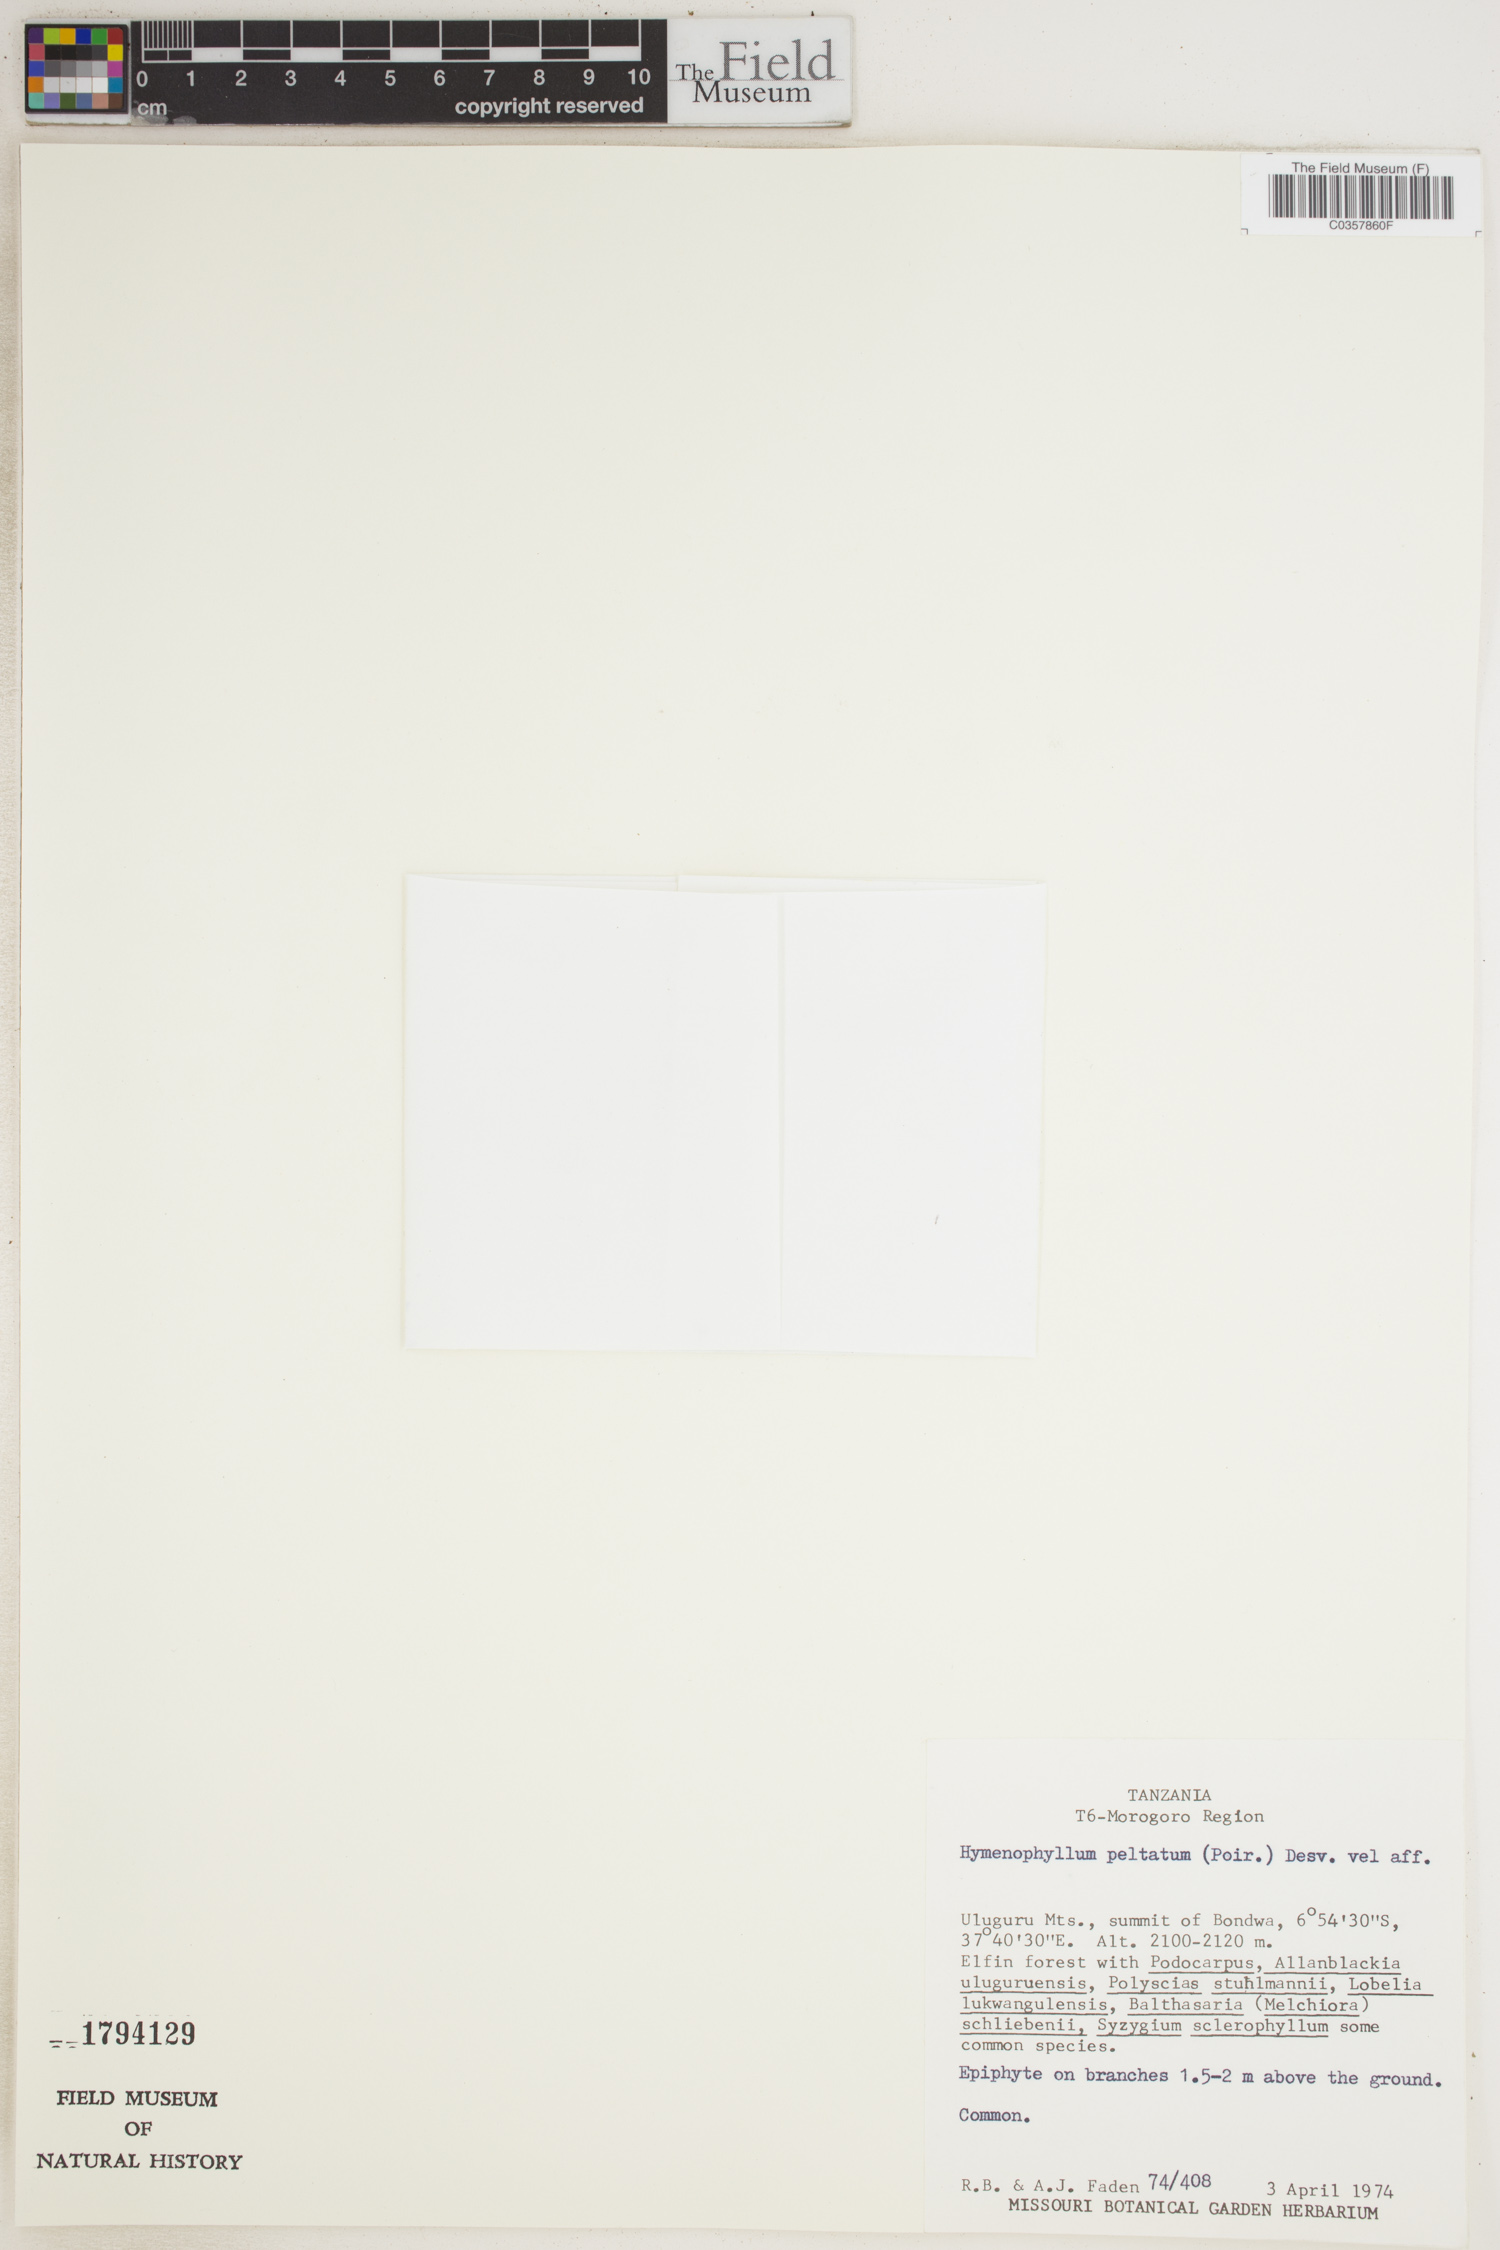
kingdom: Plantae
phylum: Tracheophyta
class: Polypodiopsida
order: Hymenophyllales
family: Hymenophyllaceae
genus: Hymenophyllum
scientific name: Hymenophyllum peltatum
